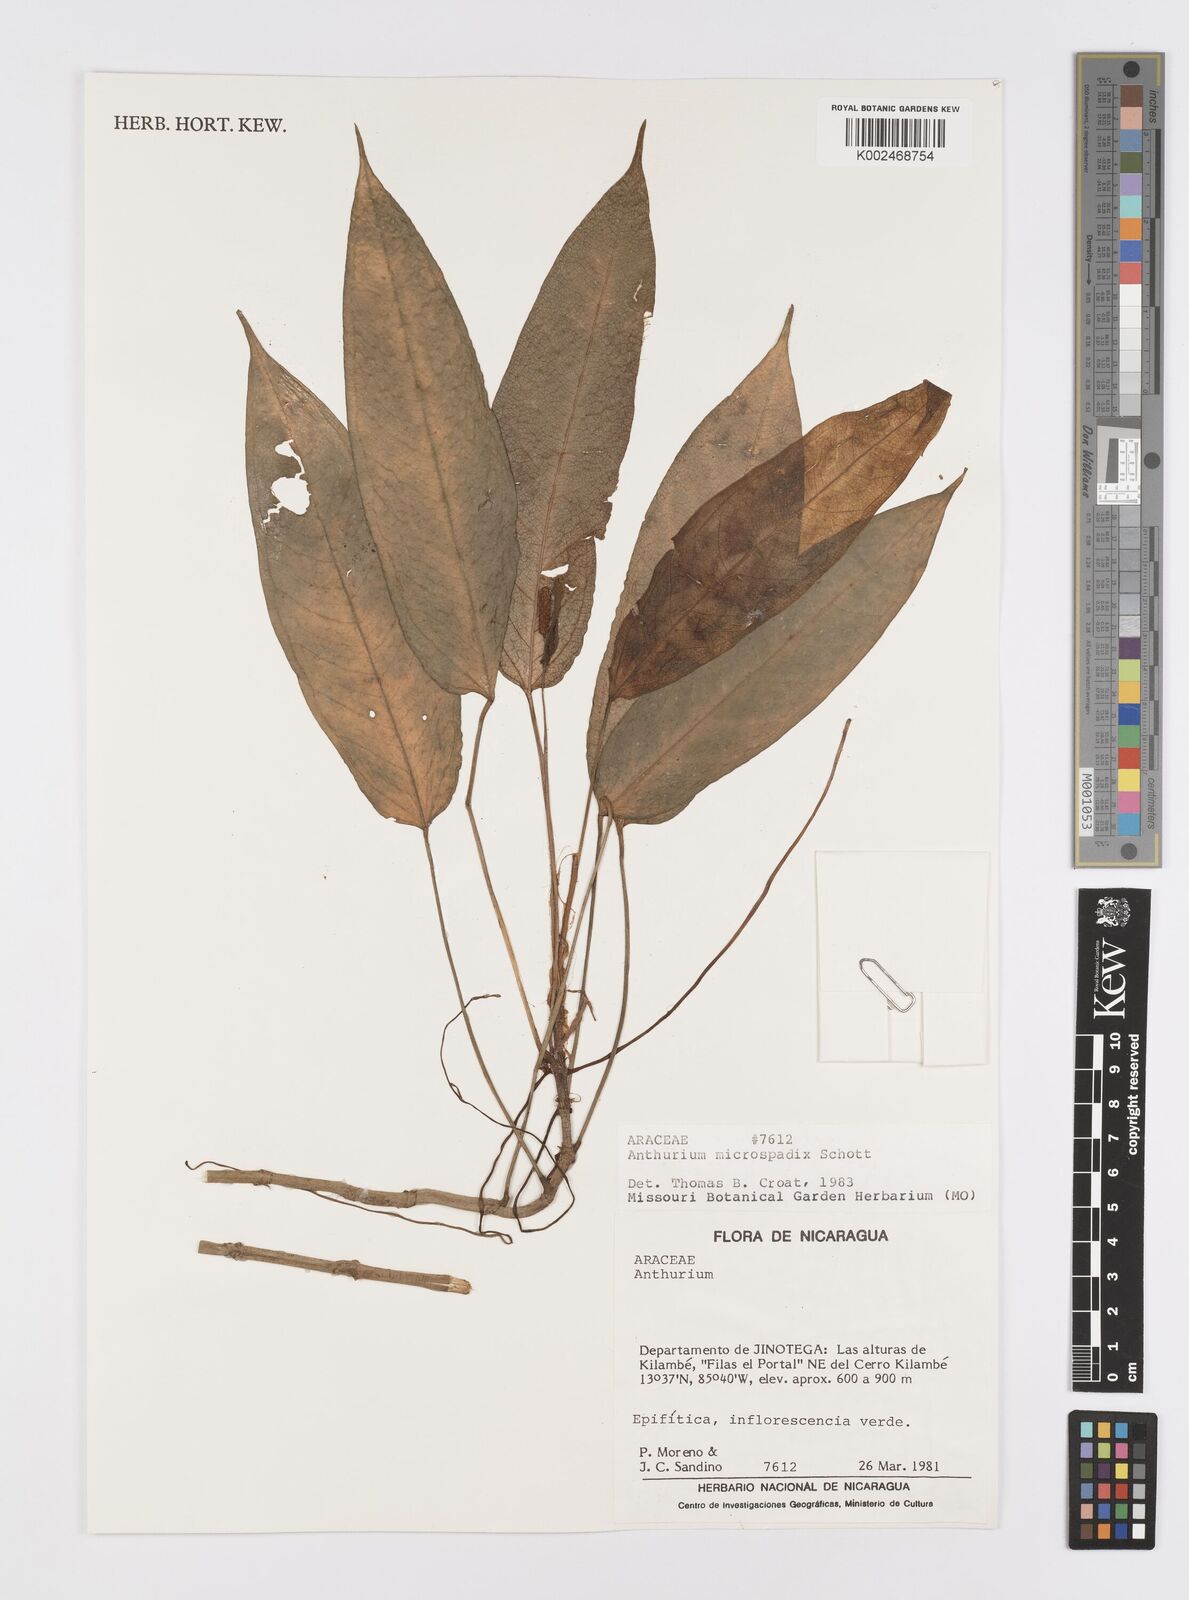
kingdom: Plantae
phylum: Tracheophyta
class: Liliopsida
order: Alismatales
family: Araceae
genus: Anthurium
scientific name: Anthurium microspadix
